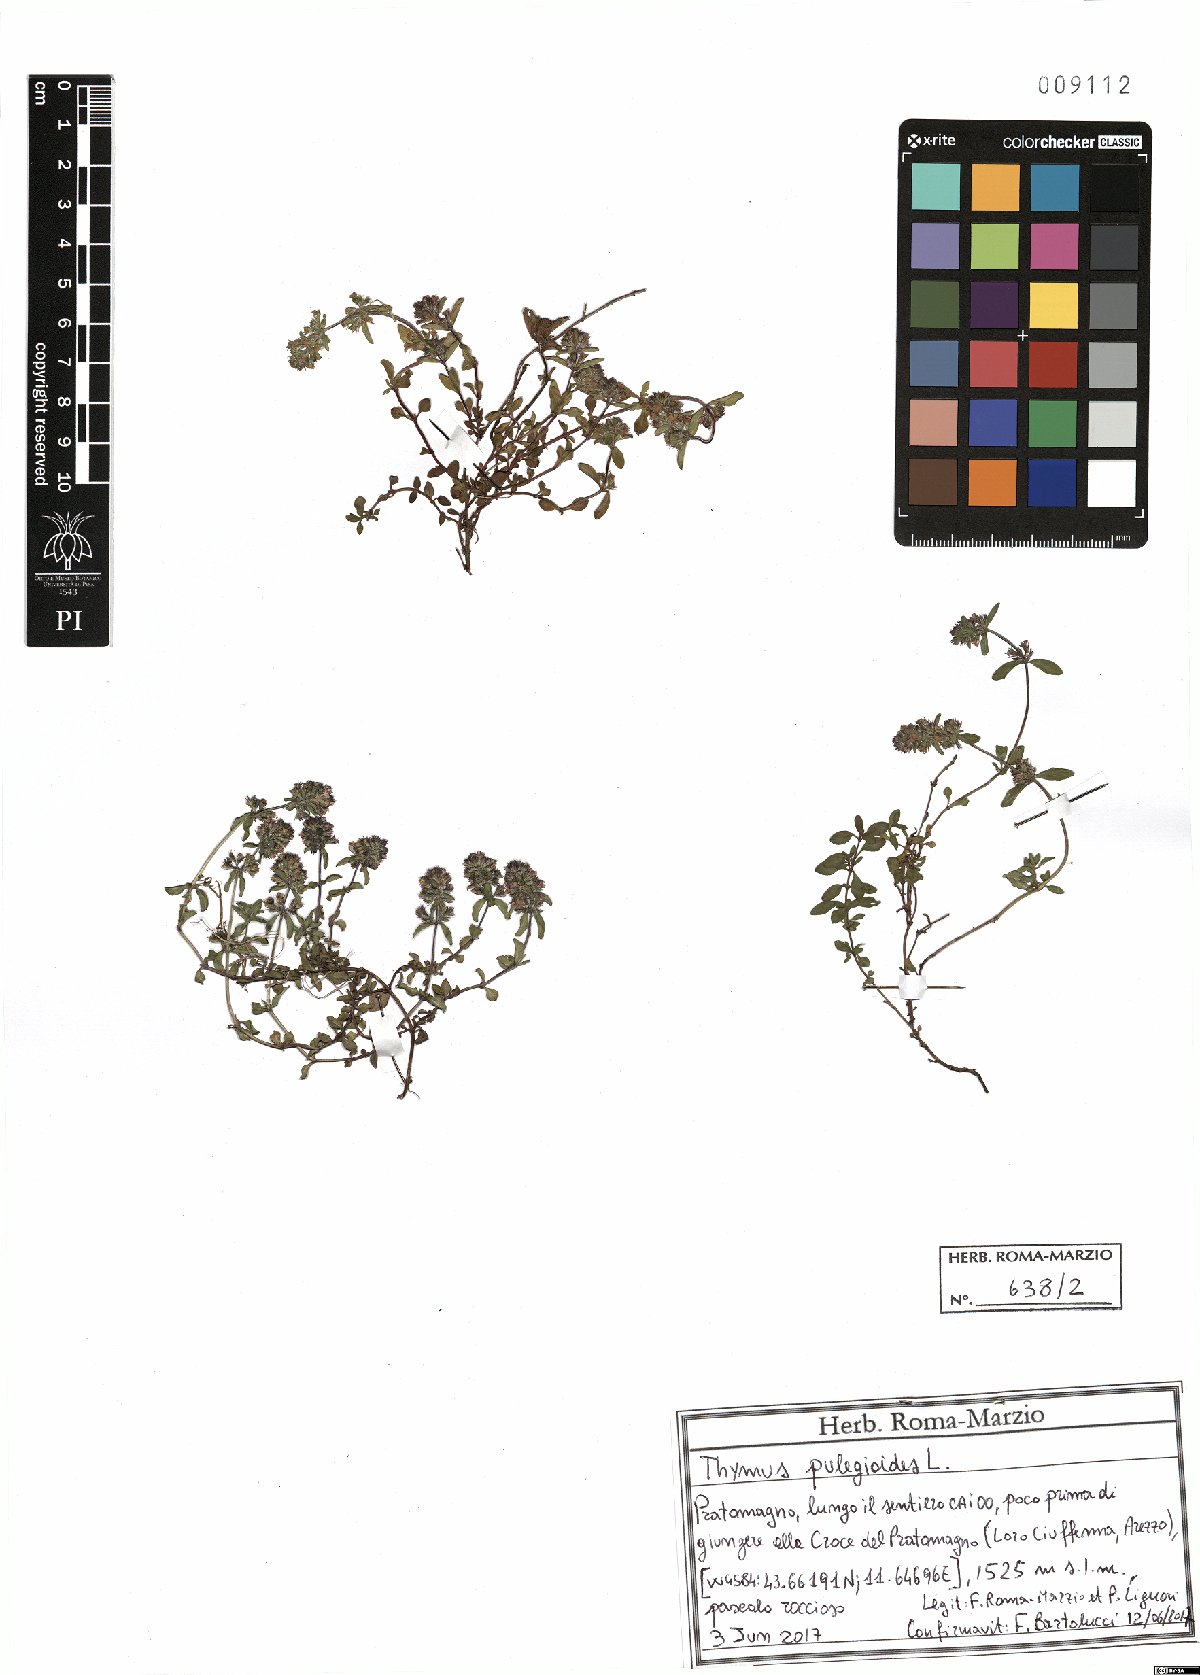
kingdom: Plantae
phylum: Tracheophyta
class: Magnoliopsida
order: Lamiales
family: Lamiaceae
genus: Thymus
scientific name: Thymus pulegioides
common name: Large thyme
